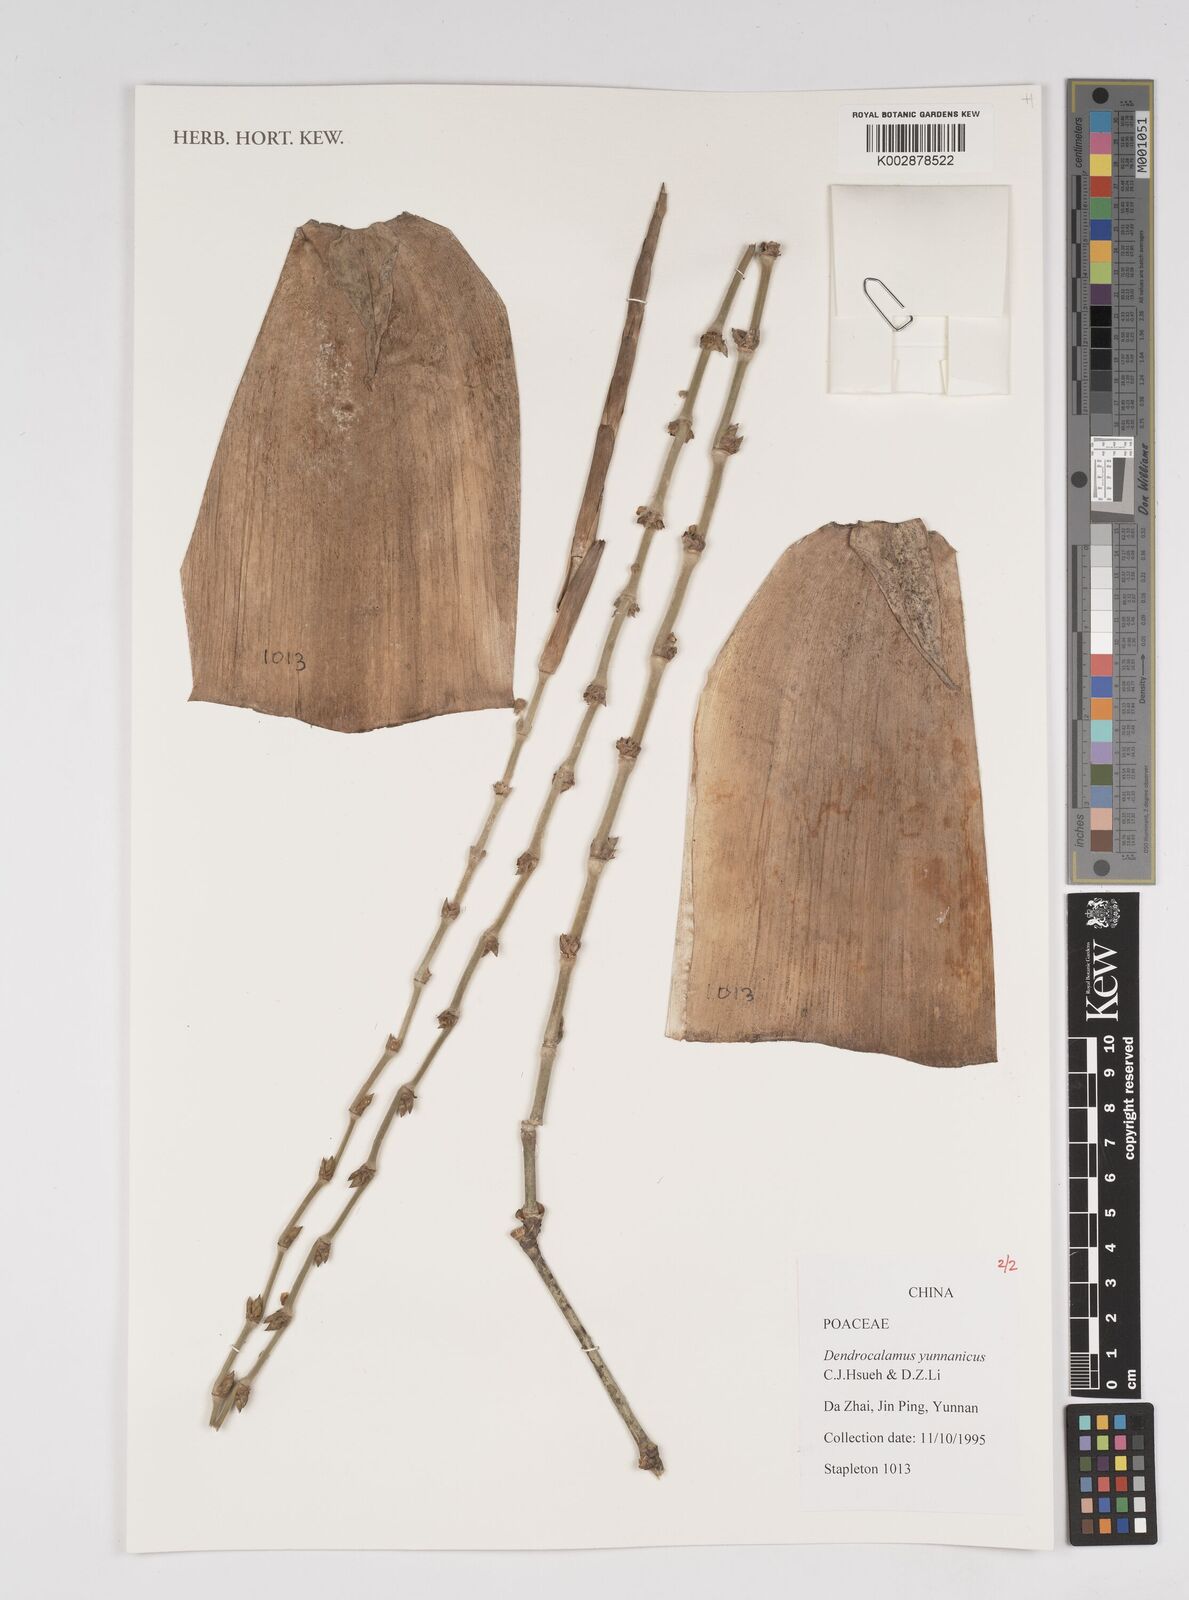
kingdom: Plantae
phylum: Tracheophyta
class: Liliopsida
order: Poales
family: Poaceae
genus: Dendrocalamus
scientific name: Dendrocalamus yunnanicus
